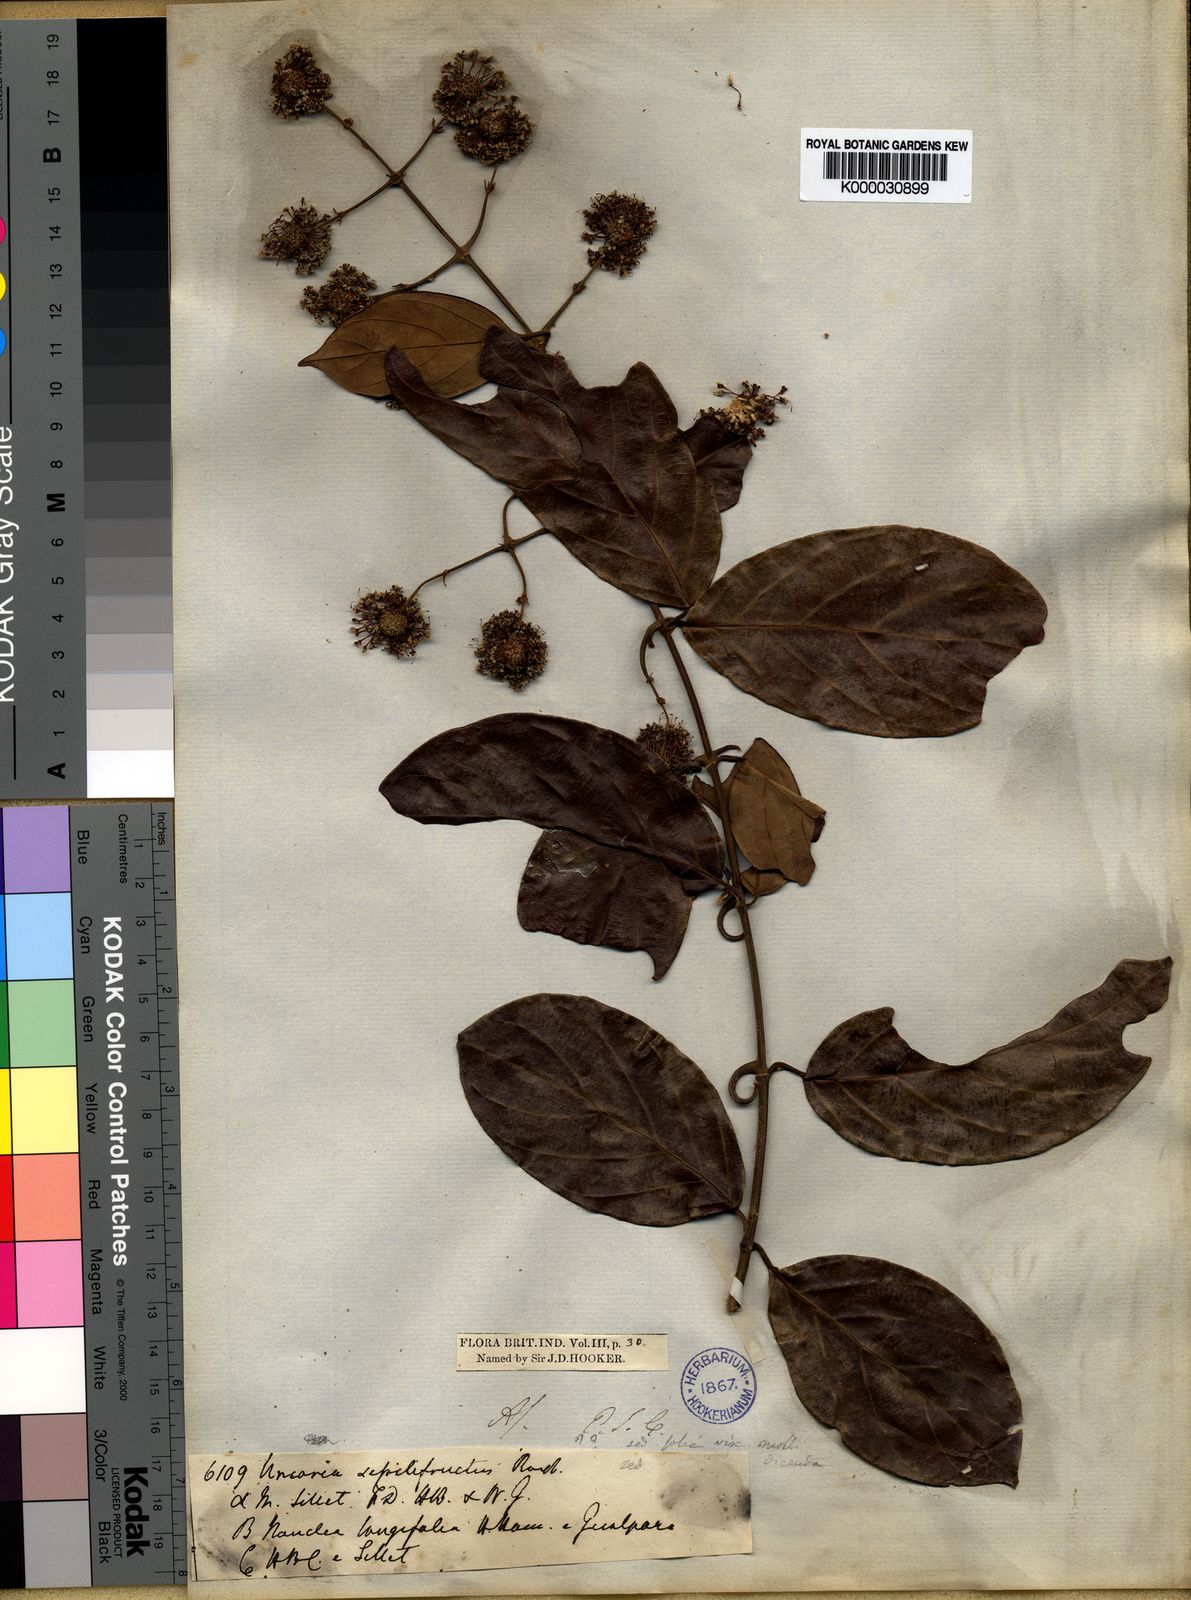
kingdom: Plantae
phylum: Tracheophyta
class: Magnoliopsida
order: Gentianales
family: Rubiaceae
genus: Uncaria
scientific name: Uncaria sessilifructus
